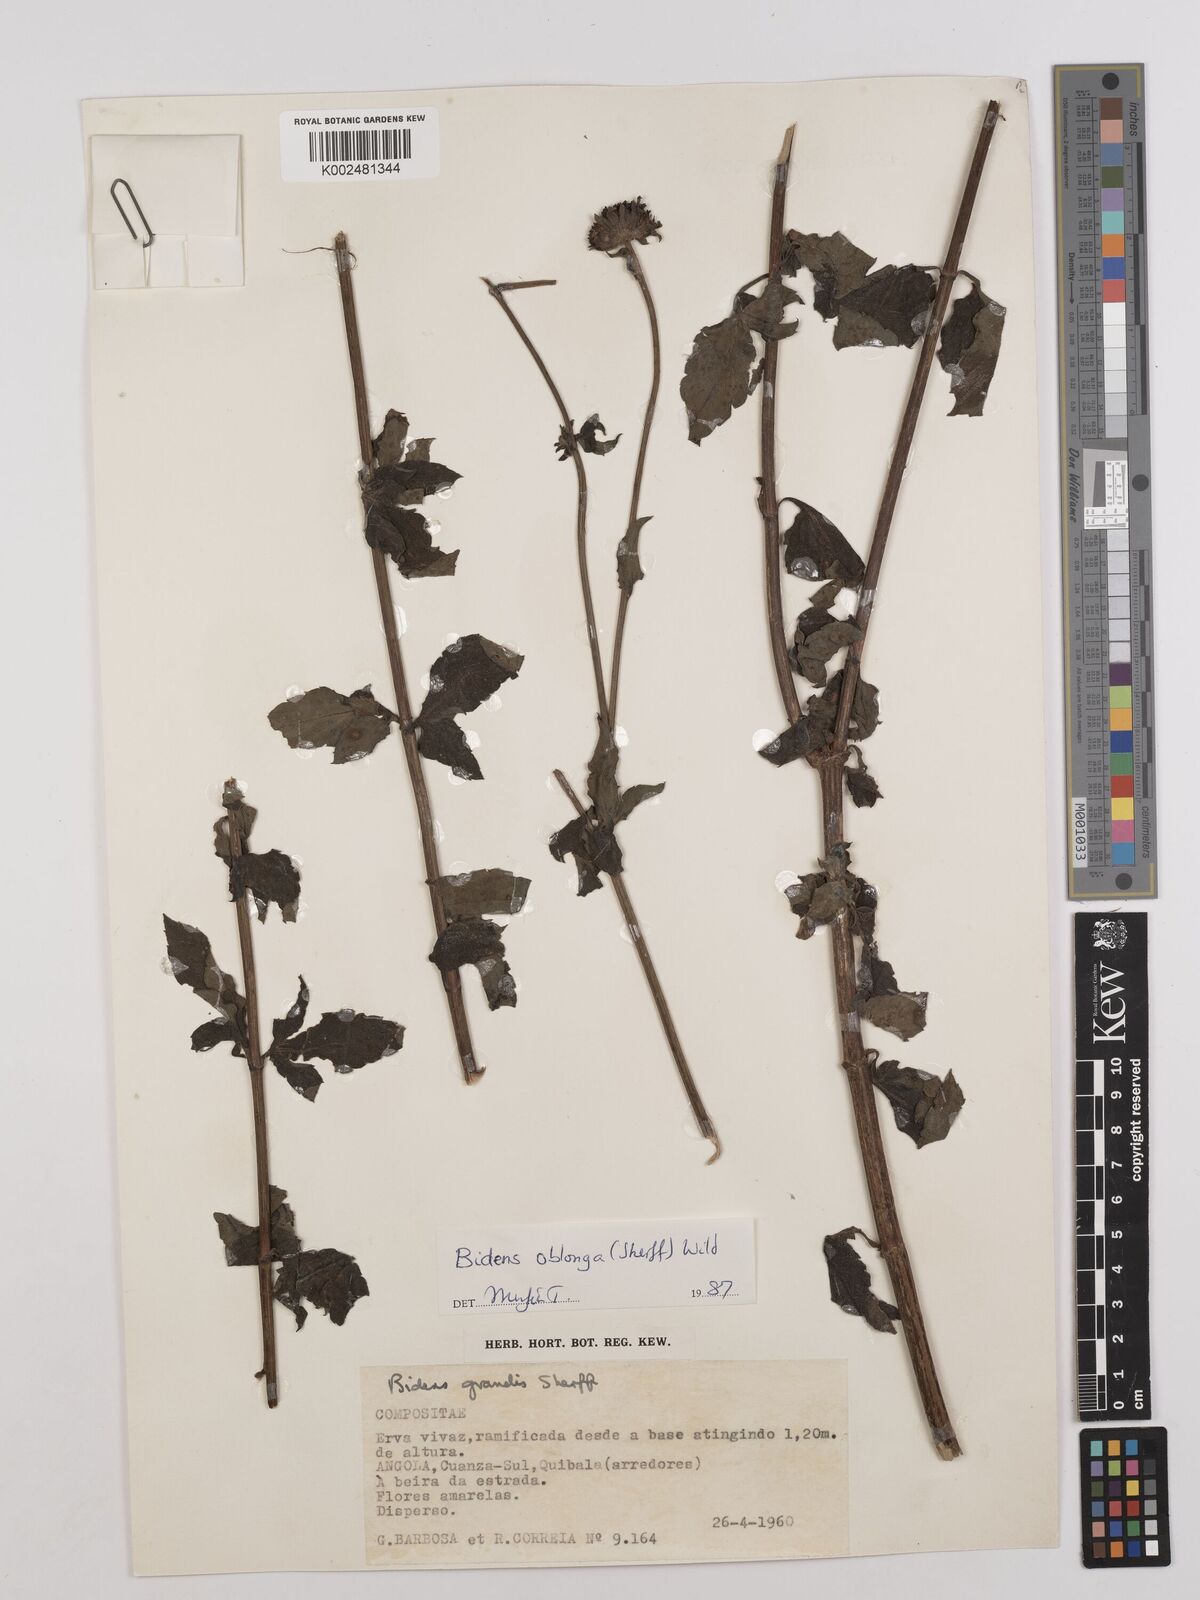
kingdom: Plantae
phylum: Tracheophyta
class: Magnoliopsida
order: Asterales
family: Asteraceae
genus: Bidens
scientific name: Bidens oblonga
